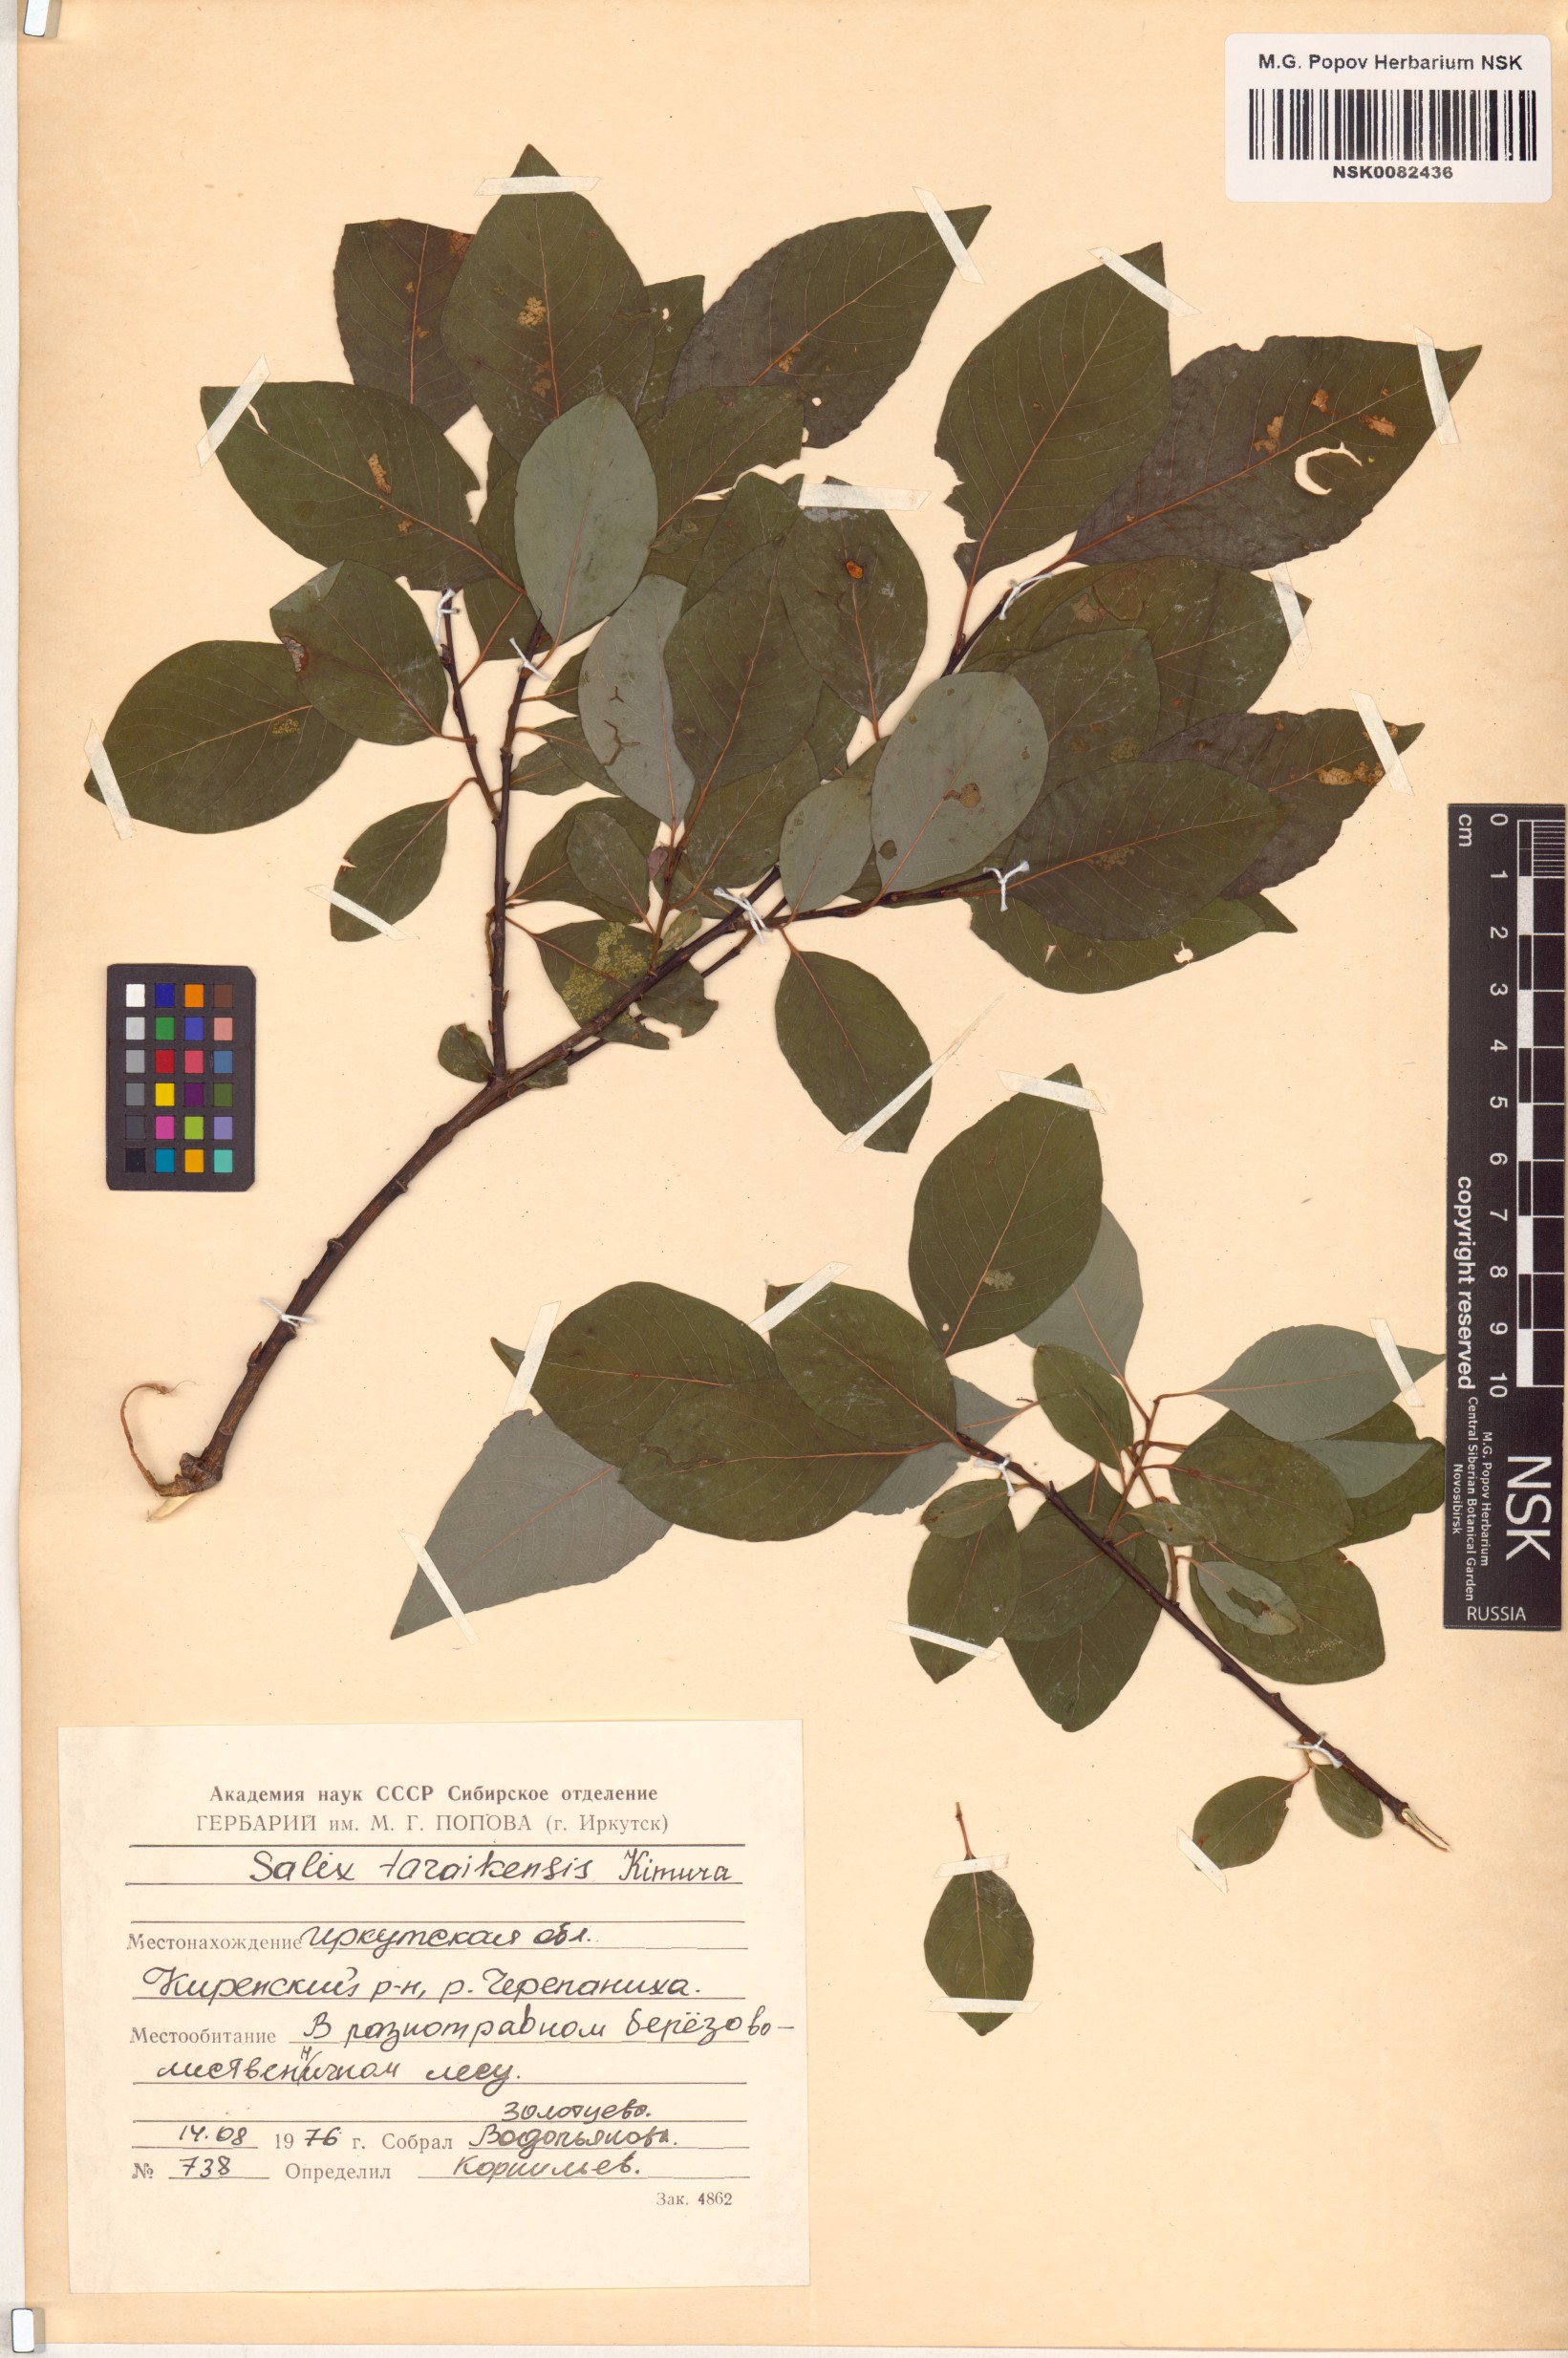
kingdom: Plantae
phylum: Tracheophyta
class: Magnoliopsida
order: Malpighiales
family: Salicaceae
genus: Salix
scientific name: Salix taraikensis
